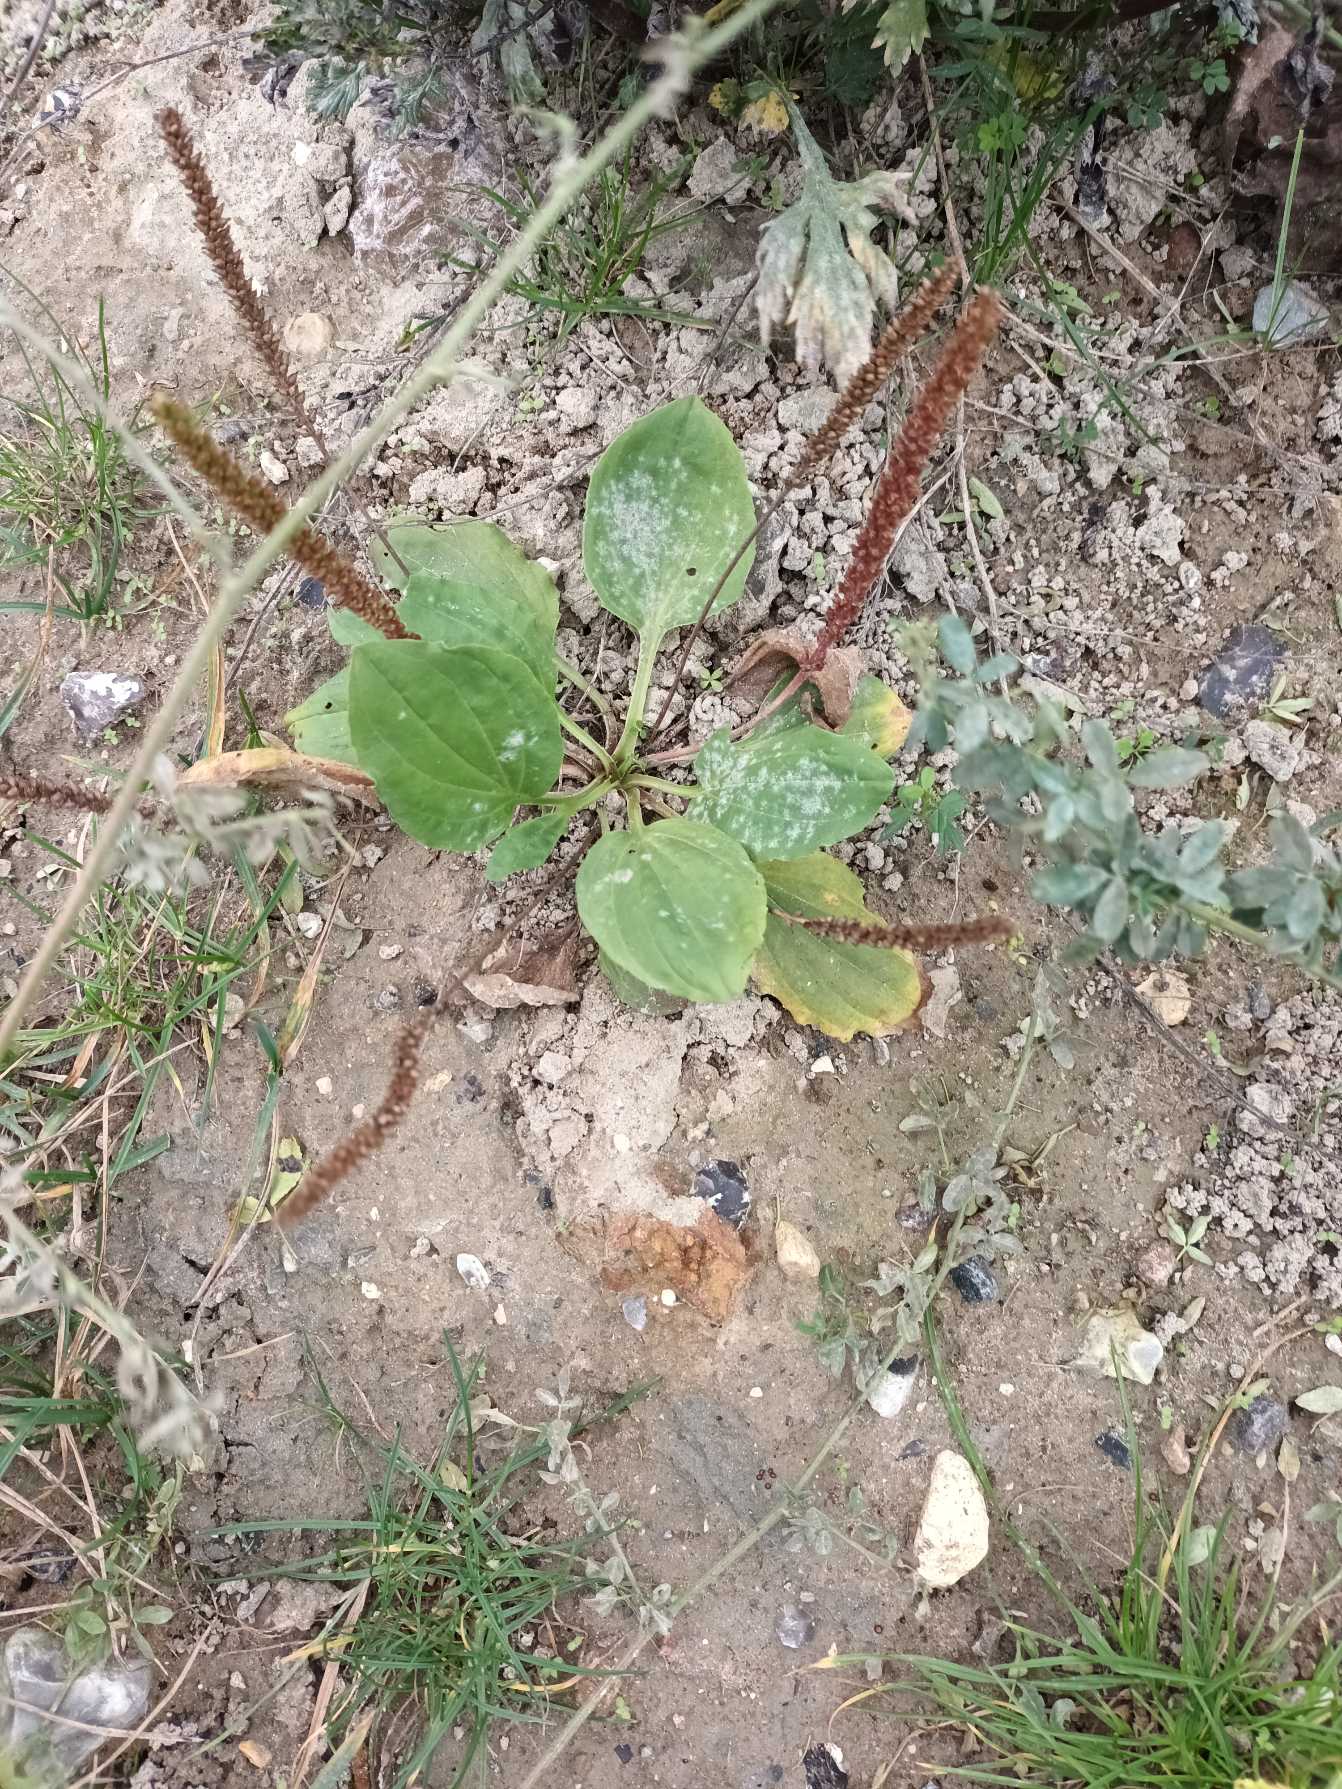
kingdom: Plantae
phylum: Tracheophyta
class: Magnoliopsida
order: Lamiales
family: Plantaginaceae
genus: Plantago
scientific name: Plantago major
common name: Glat vejbred
